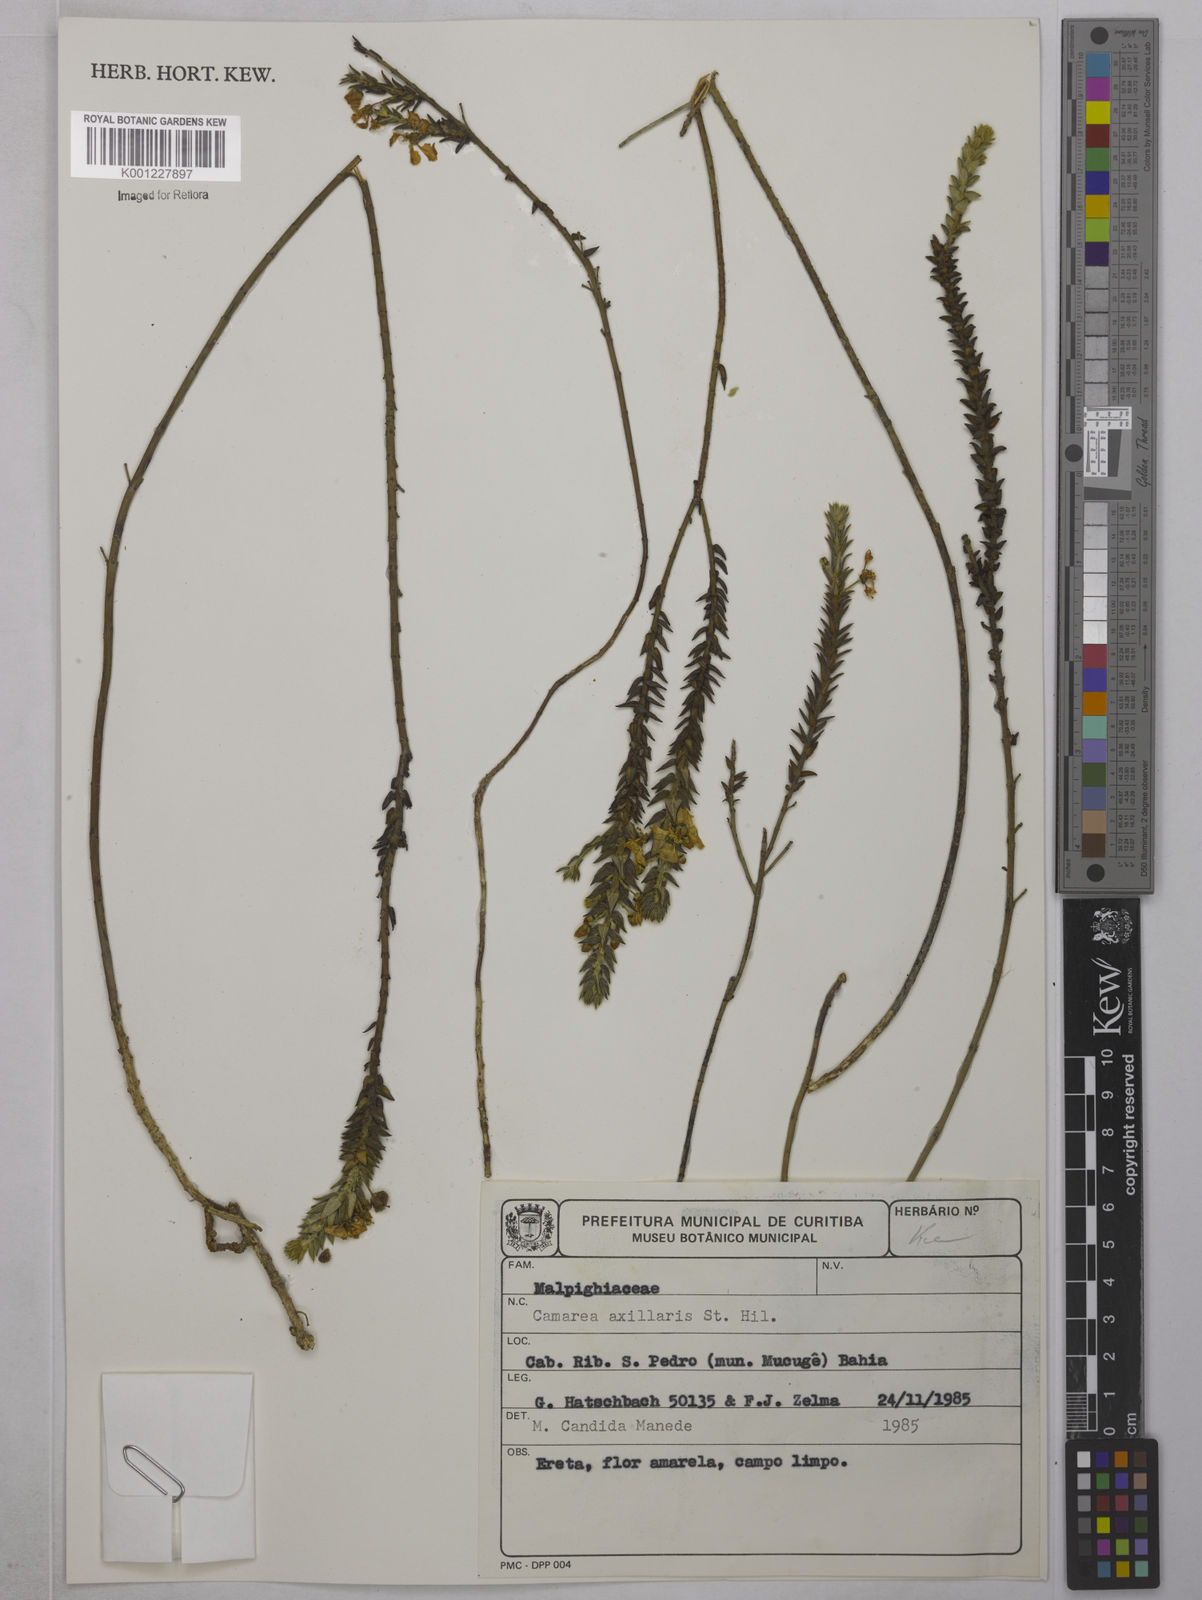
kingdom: Plantae
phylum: Tracheophyta
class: Magnoliopsida
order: Malpighiales
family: Malpighiaceae
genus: Camarea
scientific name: Camarea axillaris
